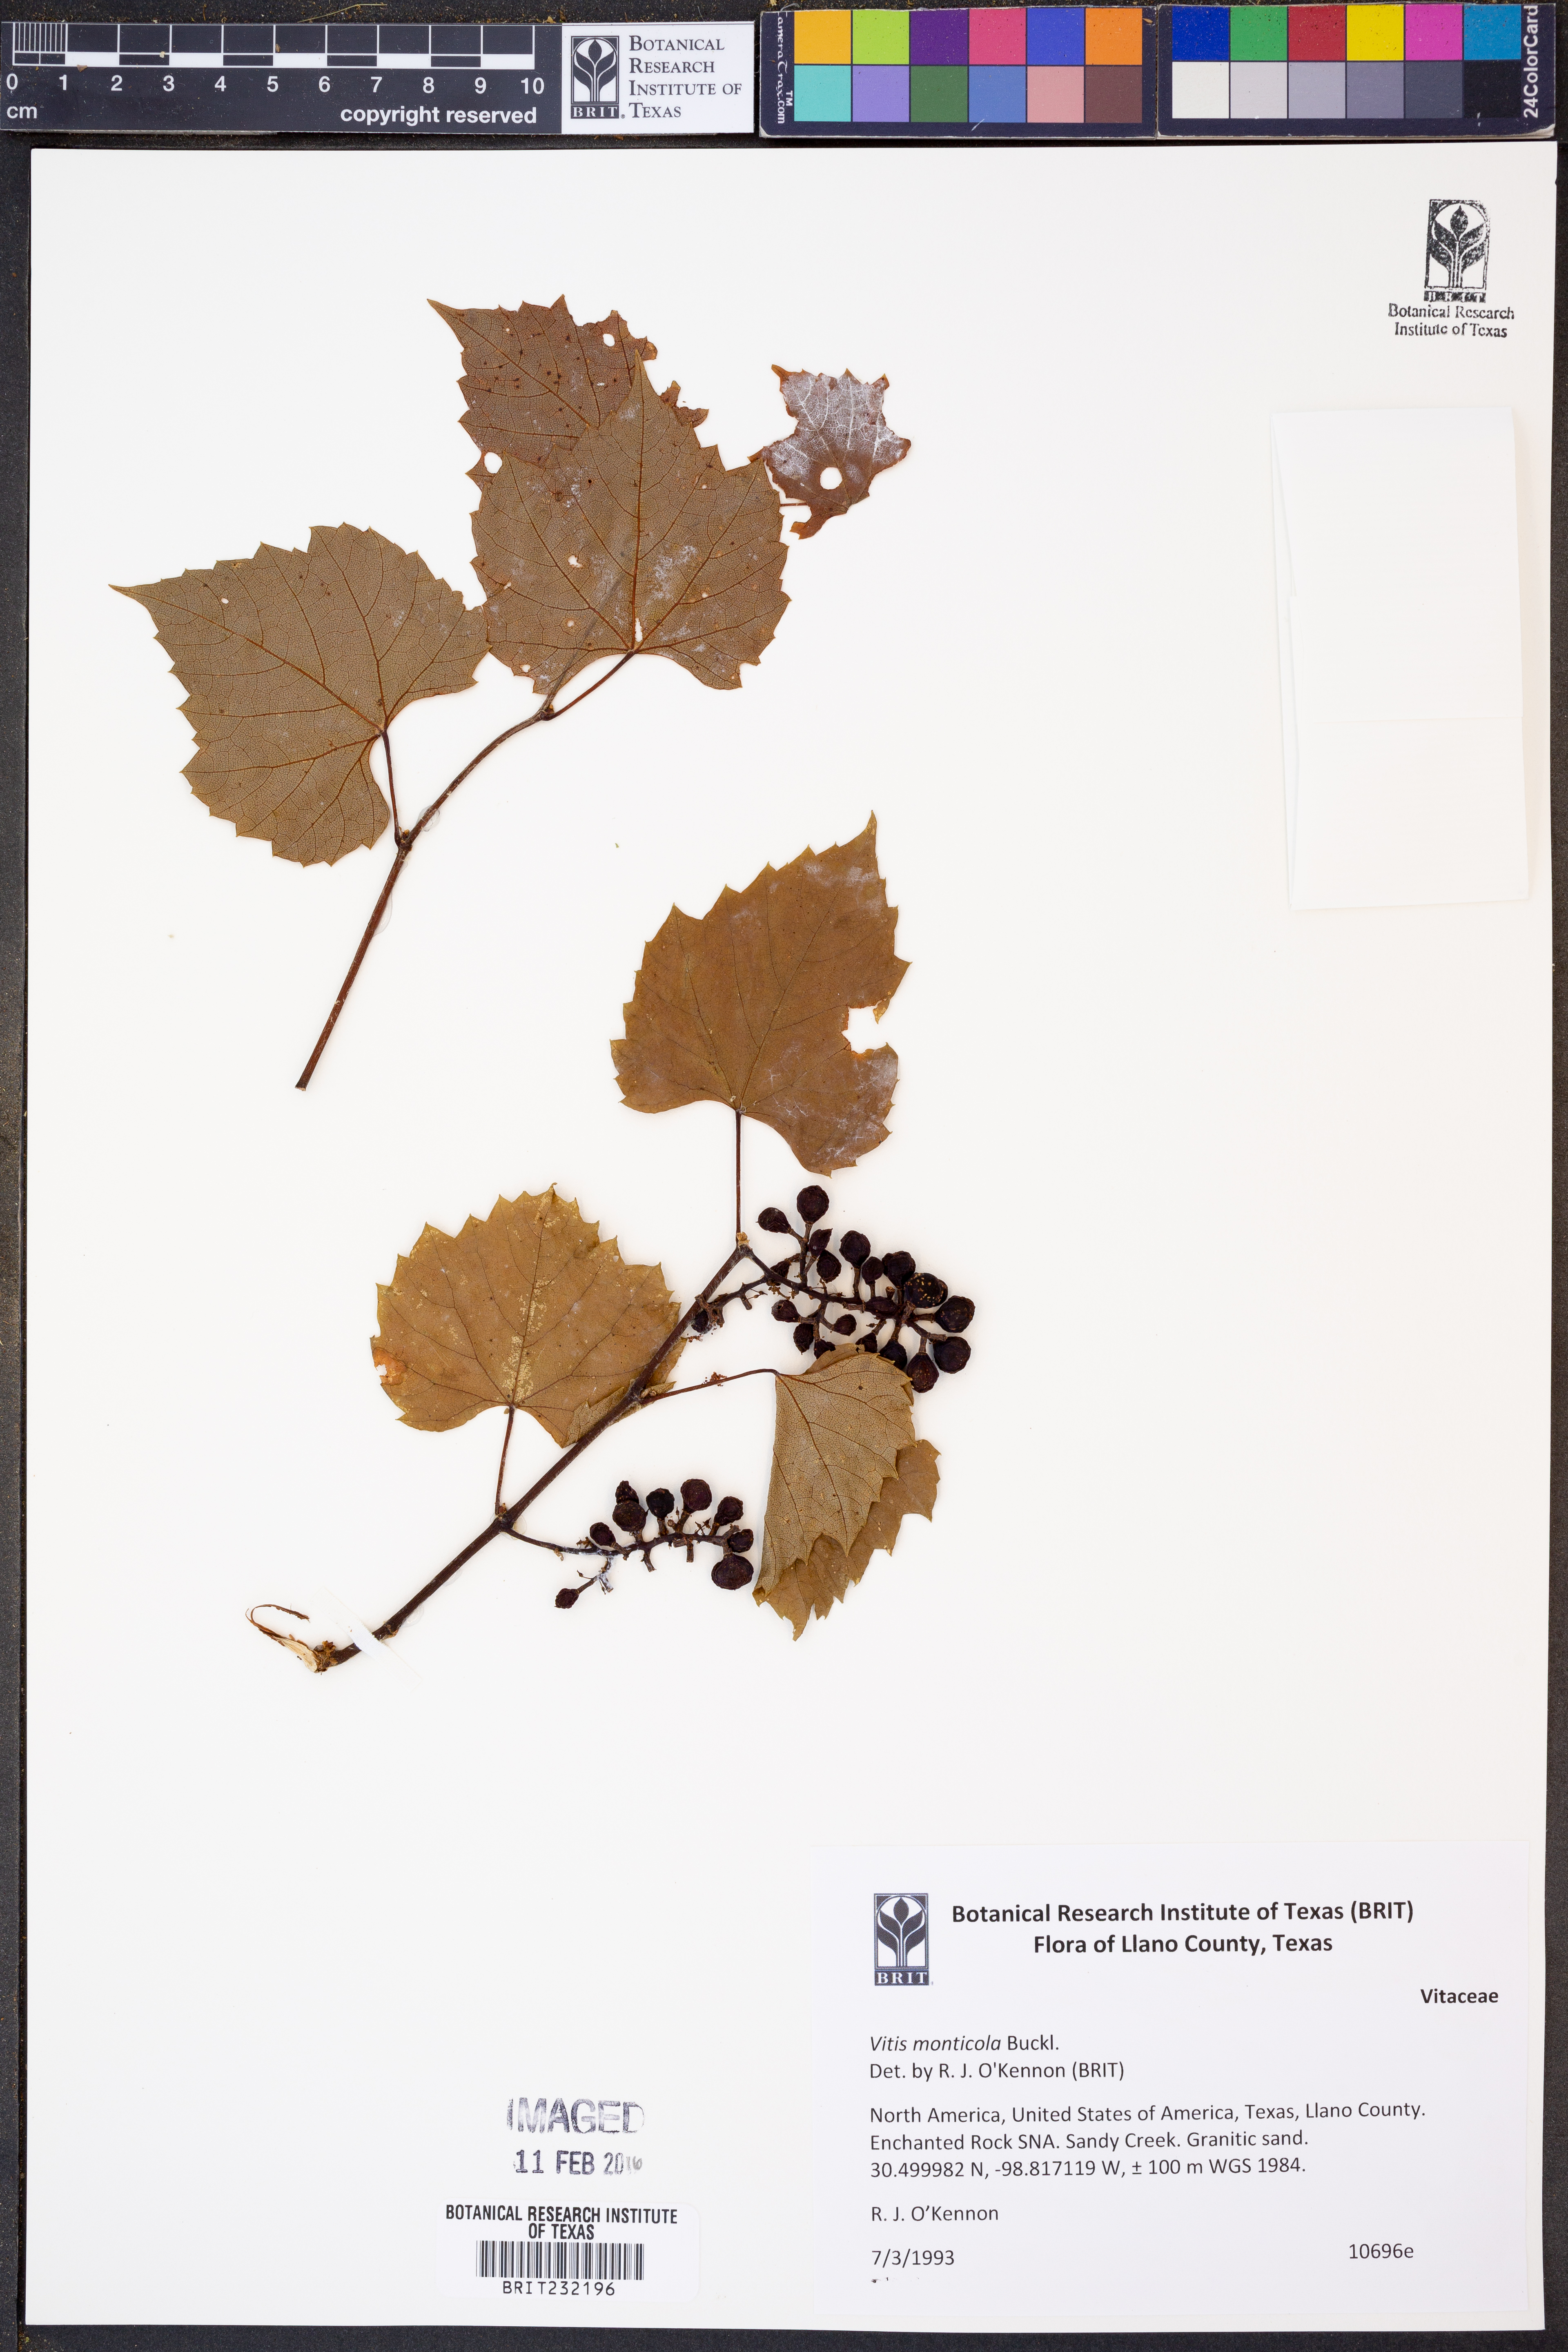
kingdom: Plantae
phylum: Tracheophyta
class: Magnoliopsida
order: Vitales
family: Vitaceae
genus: Vitis
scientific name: Vitis monticola
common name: Mountain grape
